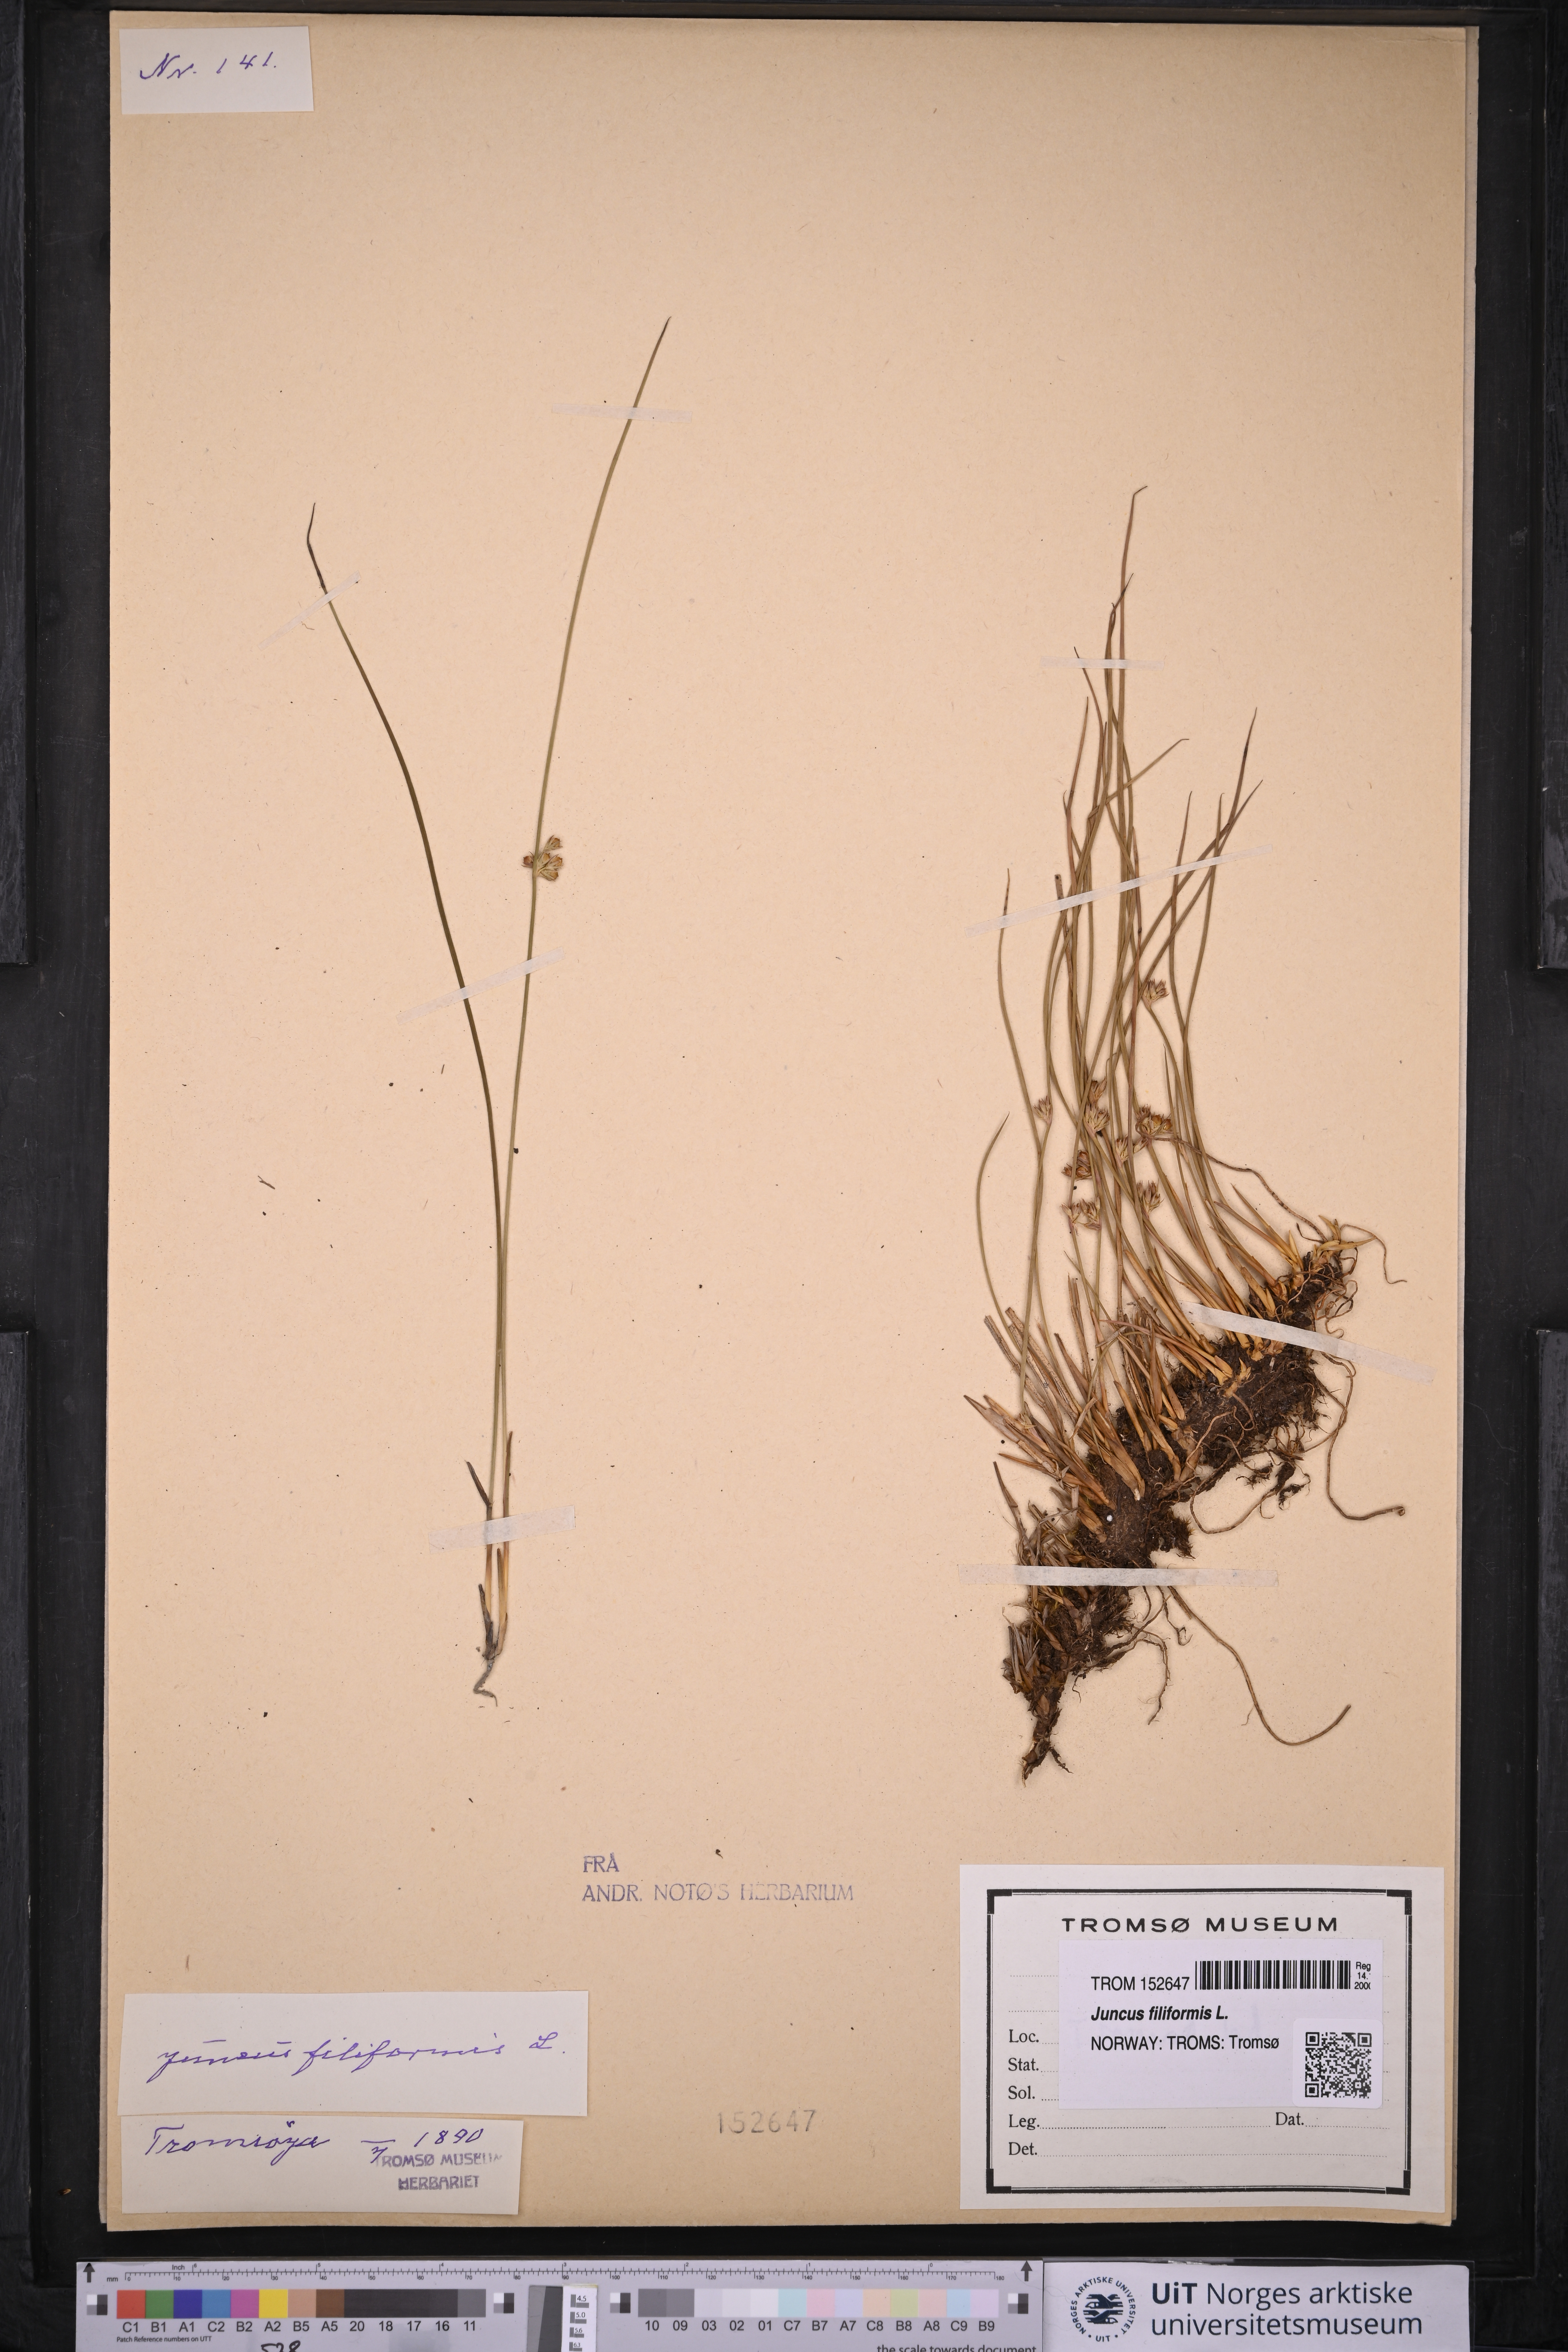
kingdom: Plantae
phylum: Tracheophyta
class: Liliopsida
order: Poales
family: Juncaceae
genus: Juncus
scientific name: Juncus filiformis
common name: Thread rush
